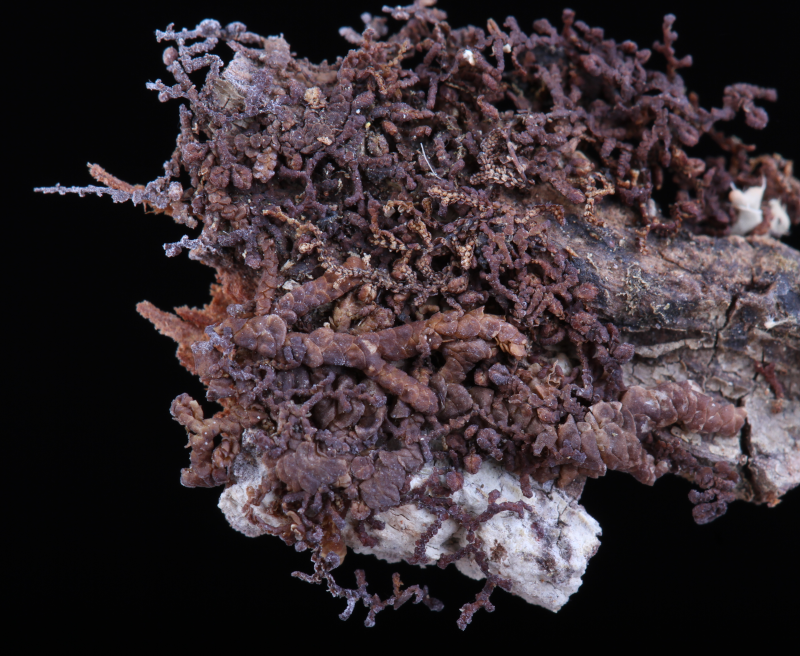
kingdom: Plantae
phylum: Marchantiophyta
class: Jungermanniopsida
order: Porellales
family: Lejeuneaceae
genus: Cheilolejeunea
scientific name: Cheilolejeunea xanthocarpa
